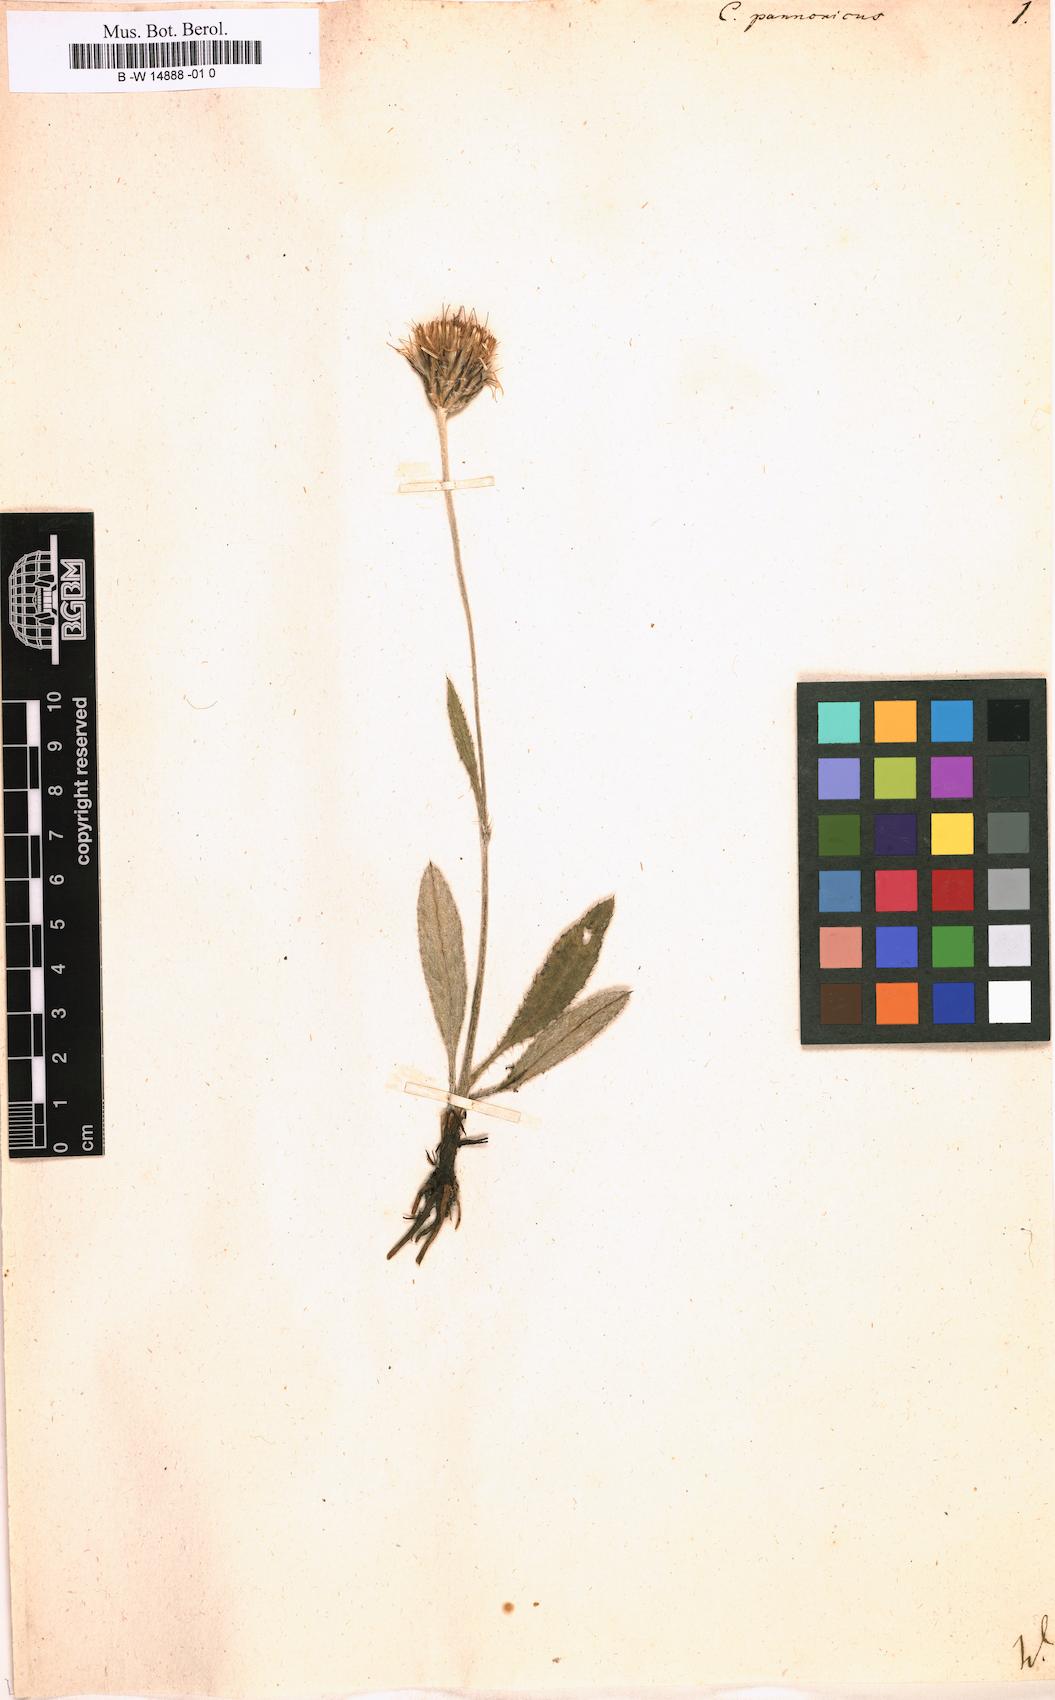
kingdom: Plantae
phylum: Tracheophyta
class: Magnoliopsida
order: Asterales
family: Asteraceae
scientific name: Asteraceae
